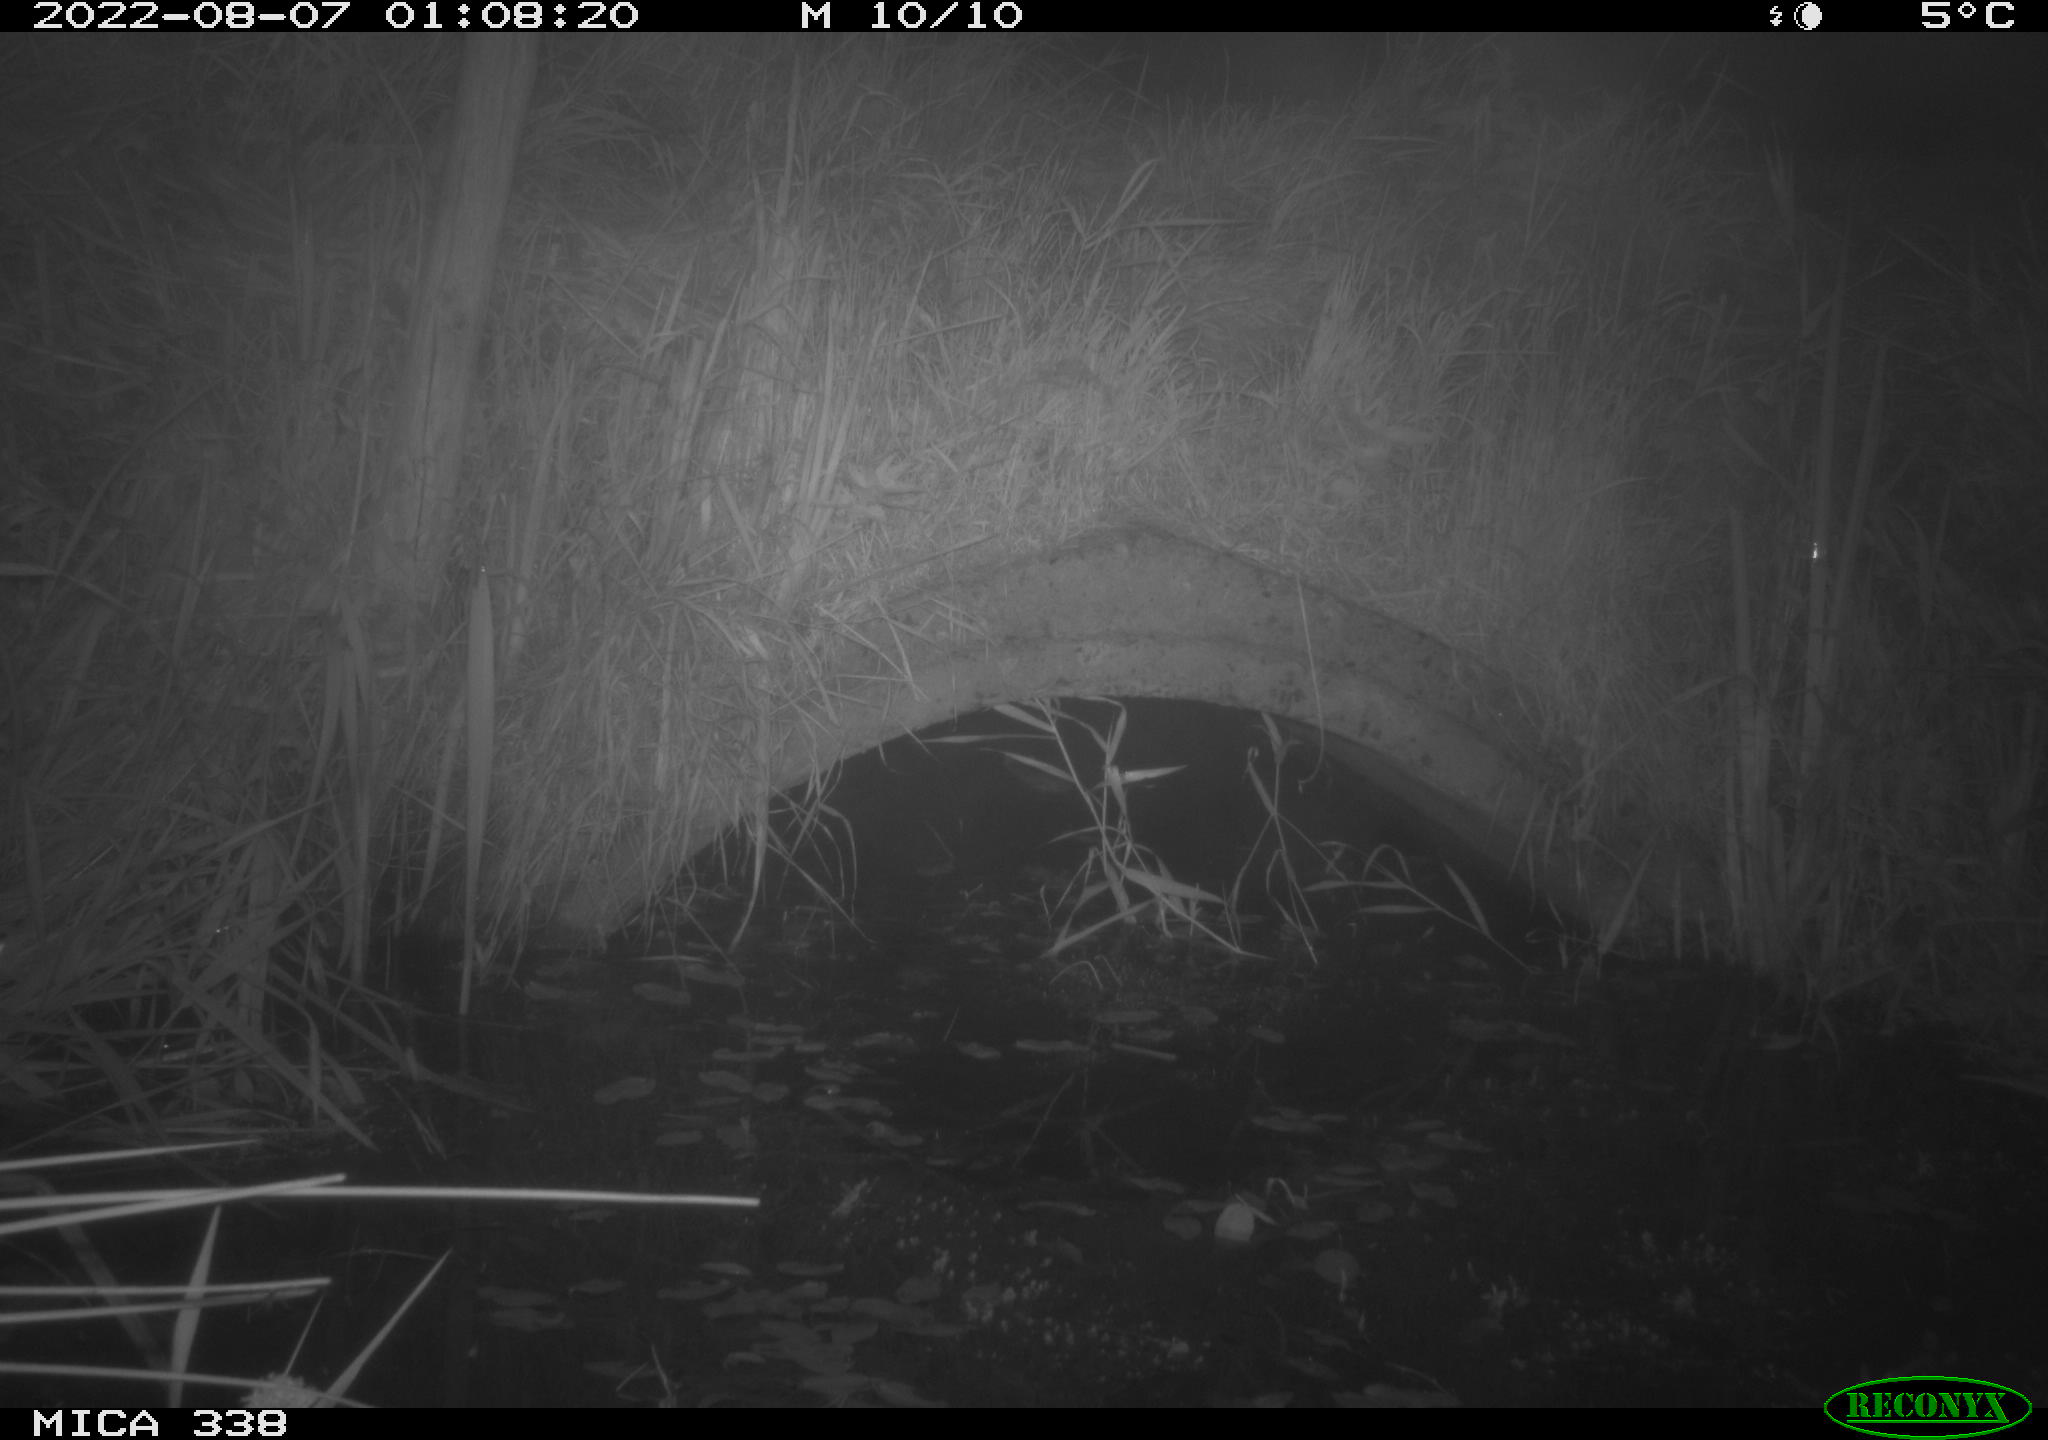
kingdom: Animalia
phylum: Chordata
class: Mammalia
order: Rodentia
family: Muridae
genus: Rattus
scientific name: Rattus norvegicus
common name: Brown rat
